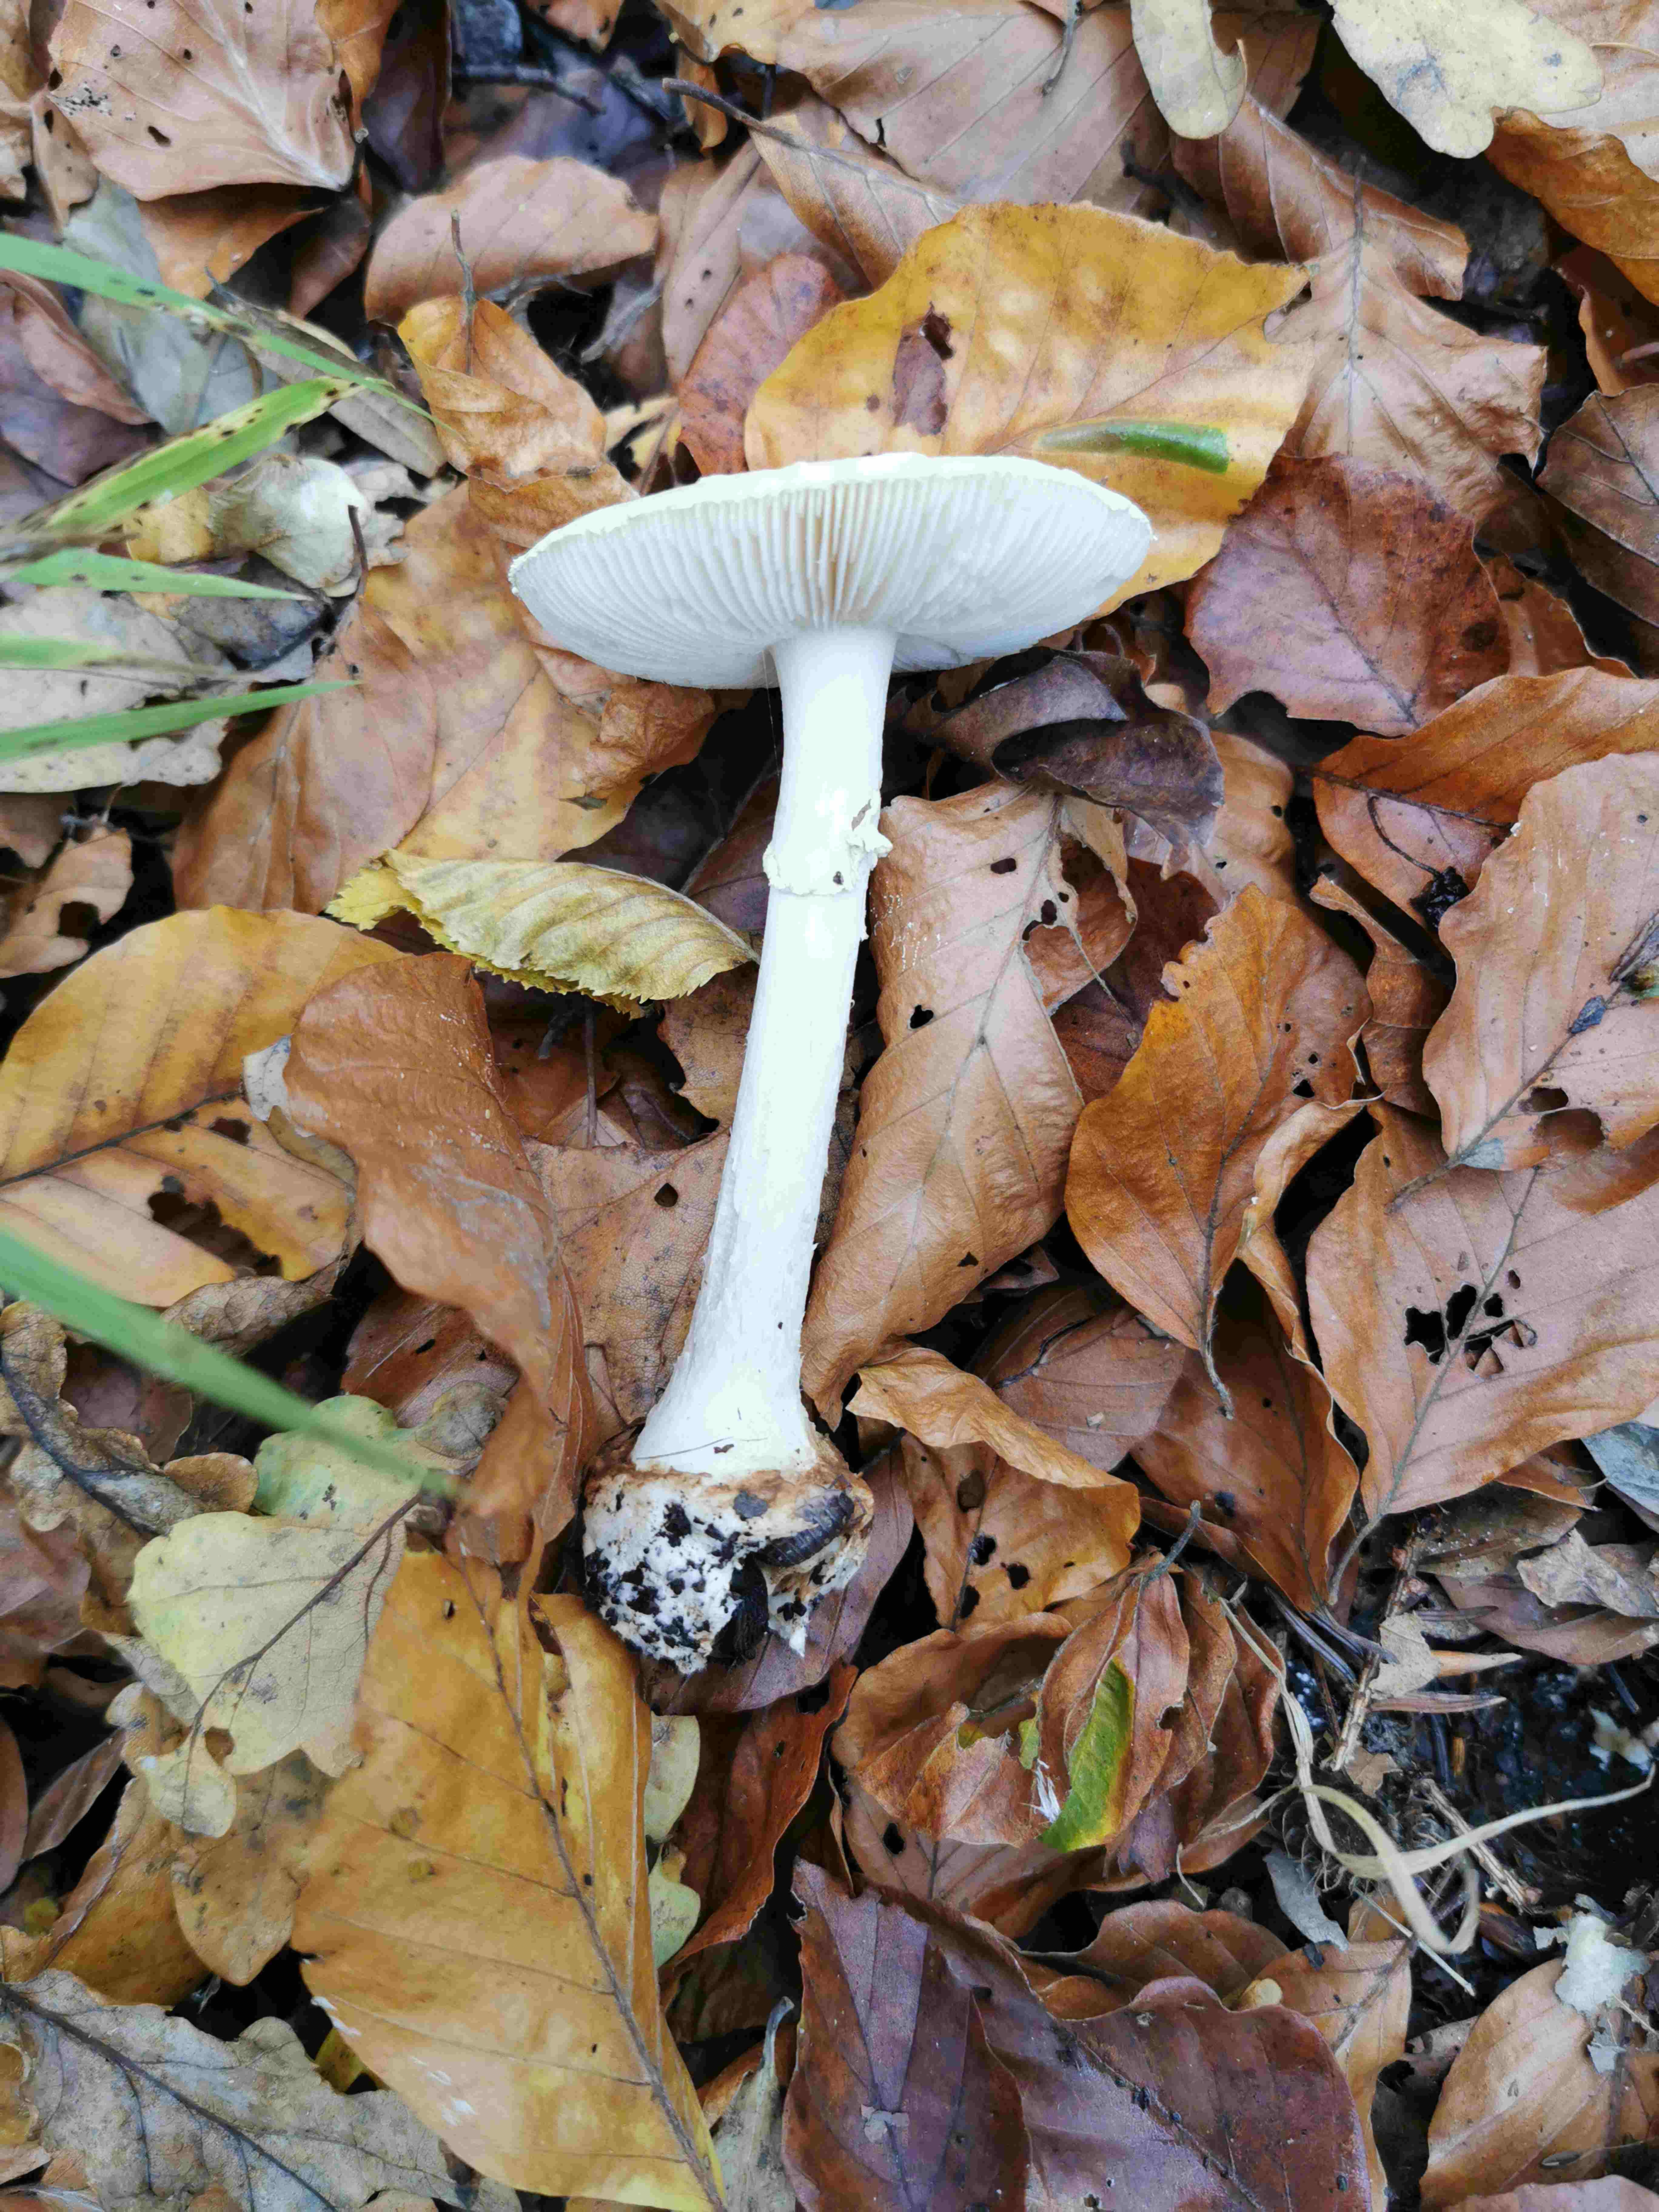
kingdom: Fungi
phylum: Basidiomycota
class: Agaricomycetes
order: Agaricales
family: Amanitaceae
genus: Amanita
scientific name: Amanita citrina
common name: False death-cap
